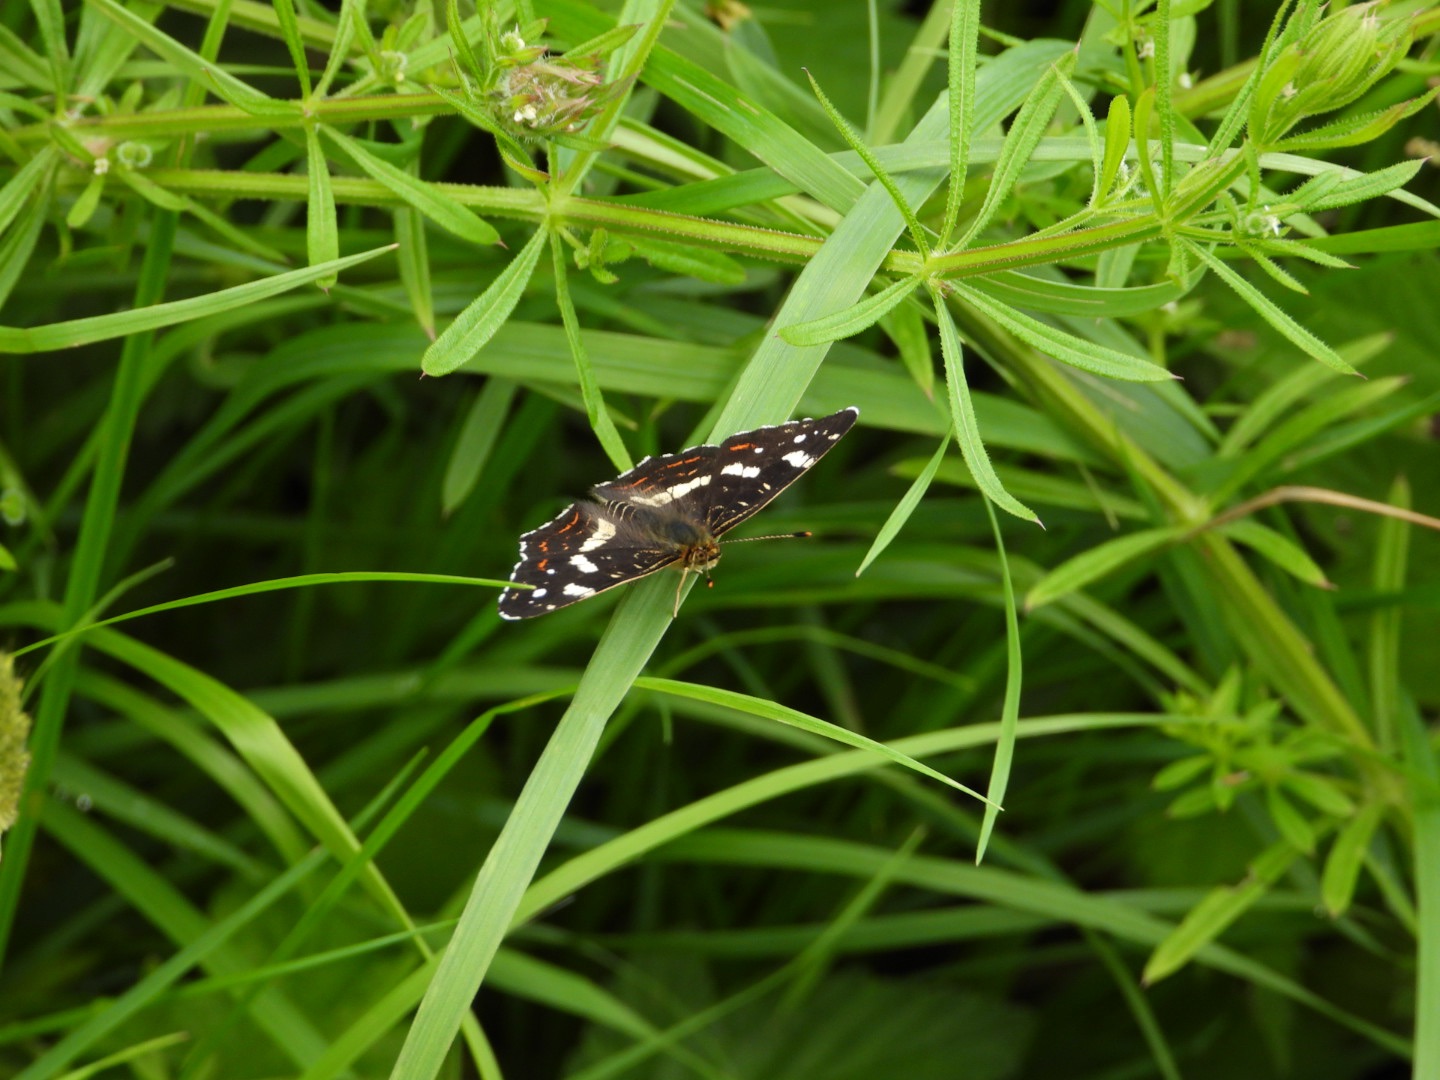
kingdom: Animalia
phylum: Arthropoda
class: Insecta
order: Lepidoptera
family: Nymphalidae
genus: Araschnia
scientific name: Araschnia levana
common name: Nældesommerfugl
